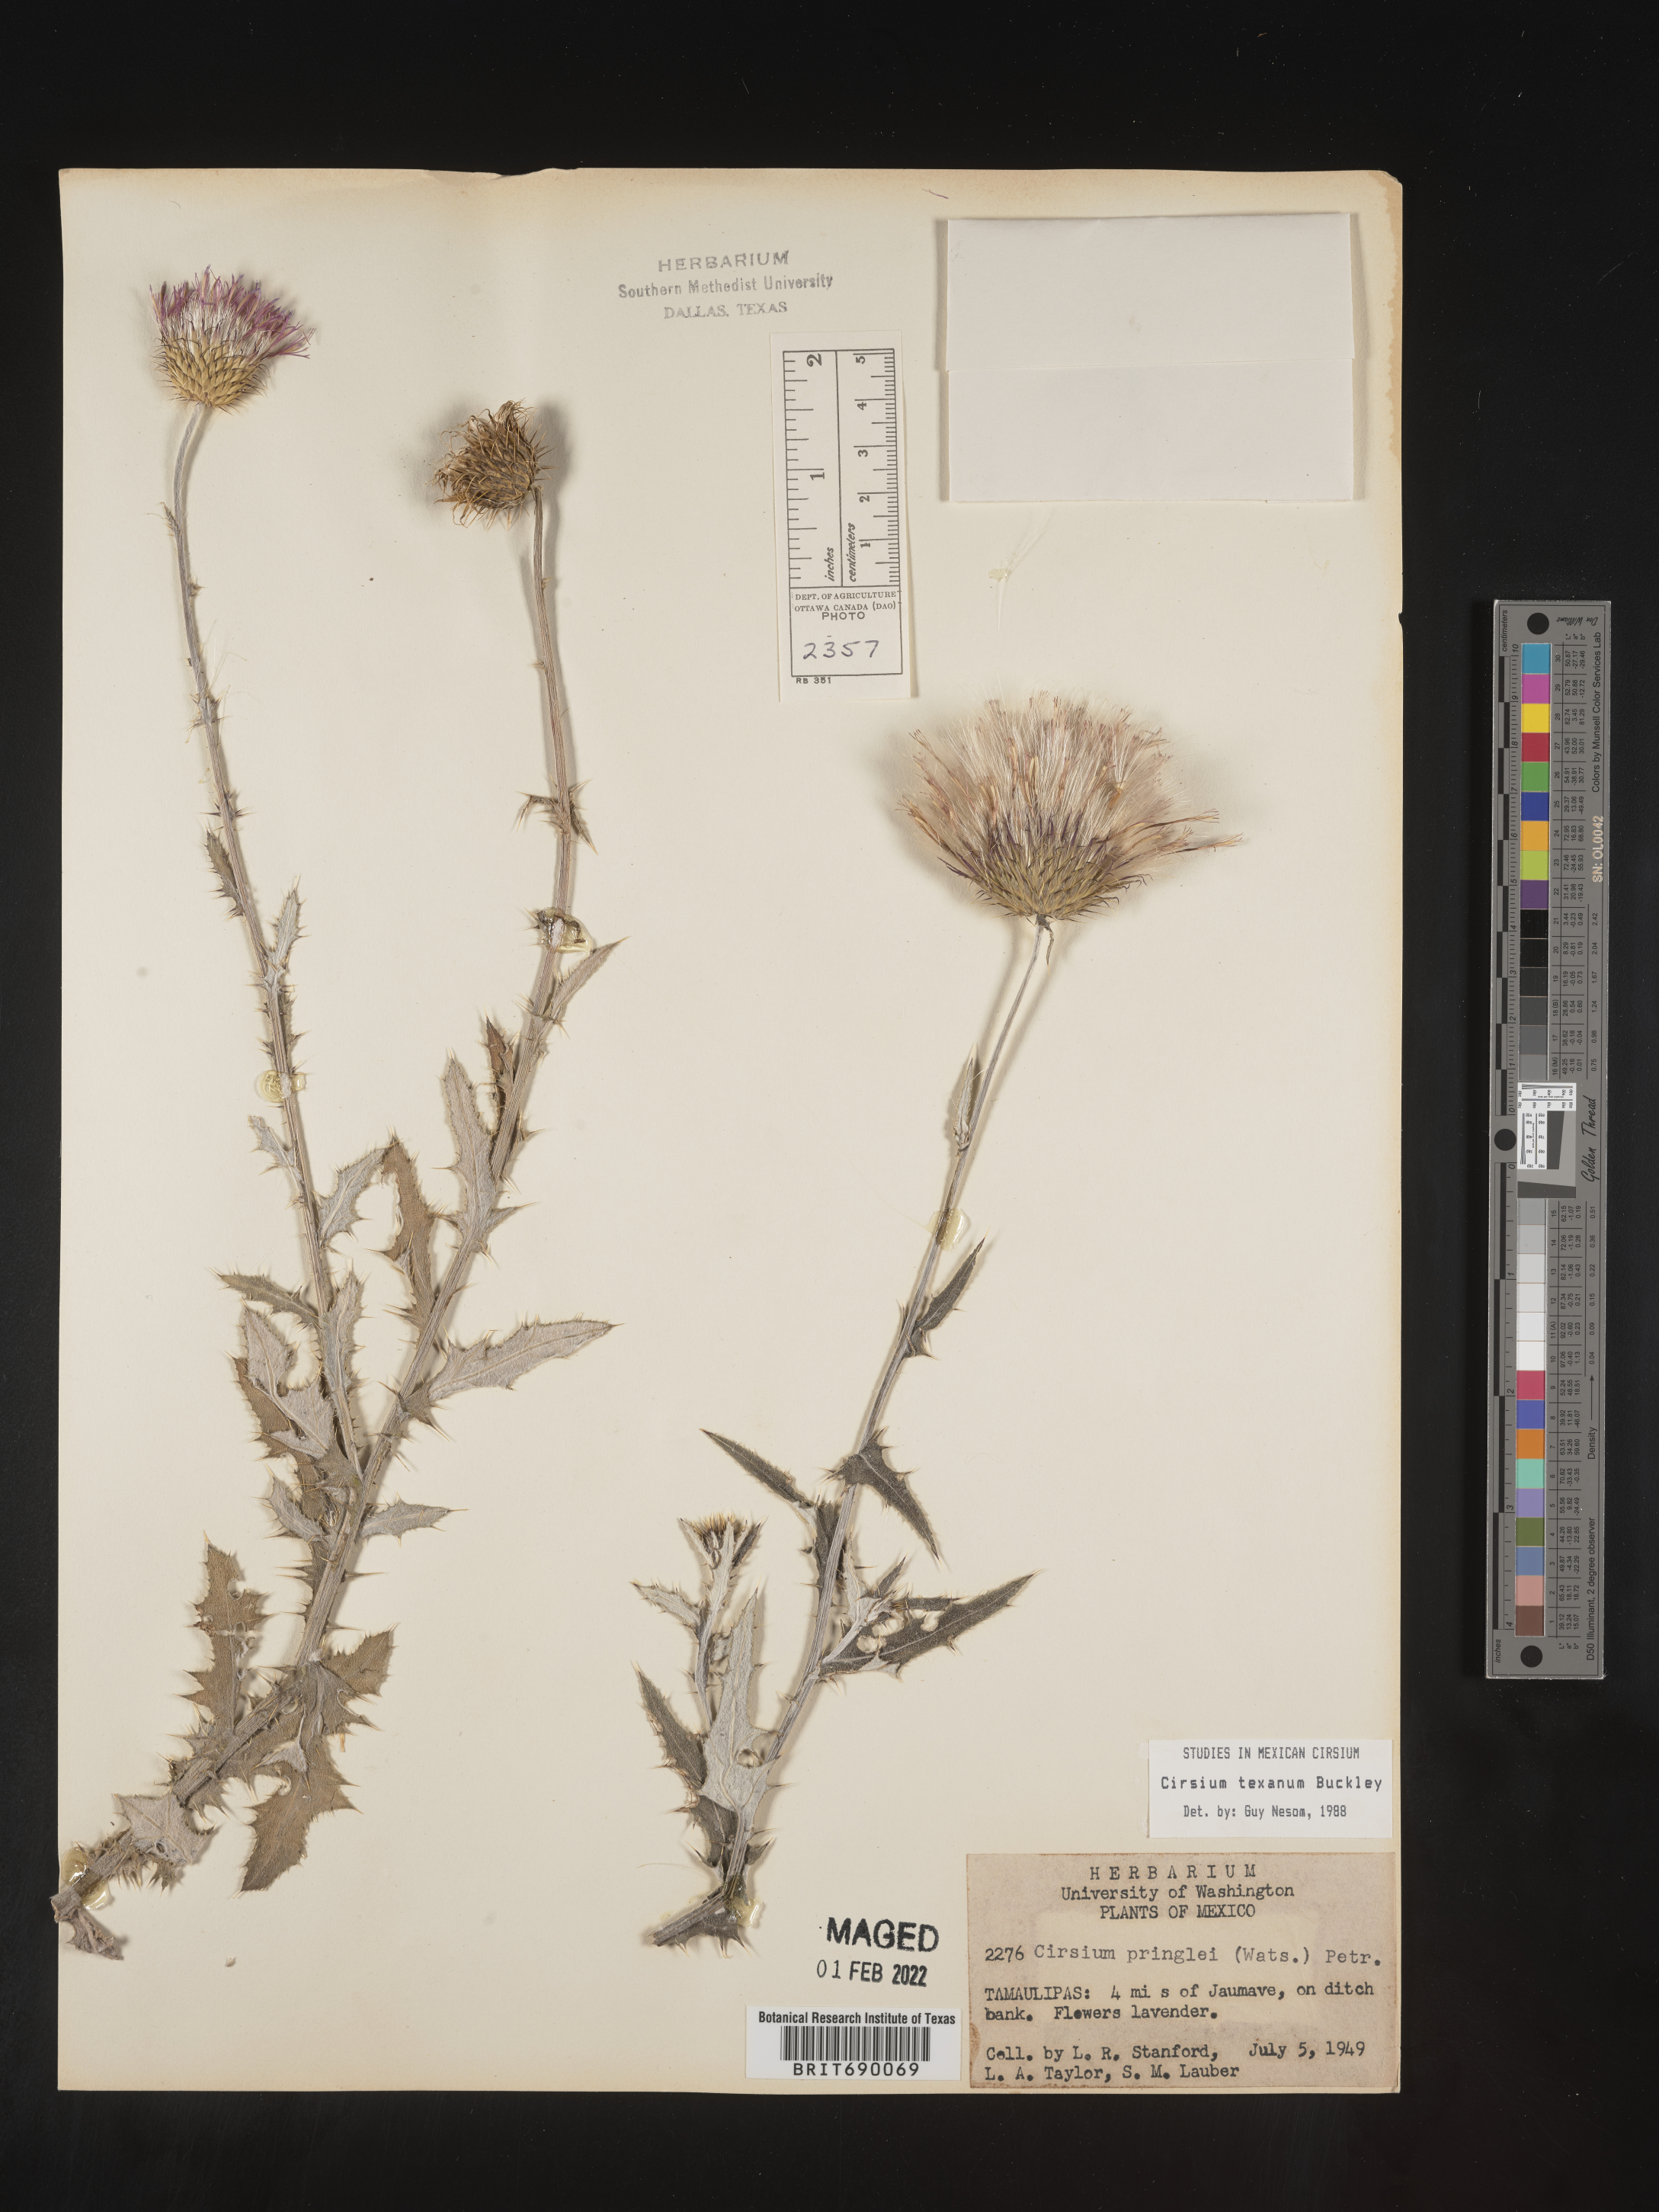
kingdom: Plantae
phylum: Tracheophyta
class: Magnoliopsida
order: Asterales
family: Asteraceae
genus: Cirsium
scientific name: Cirsium
